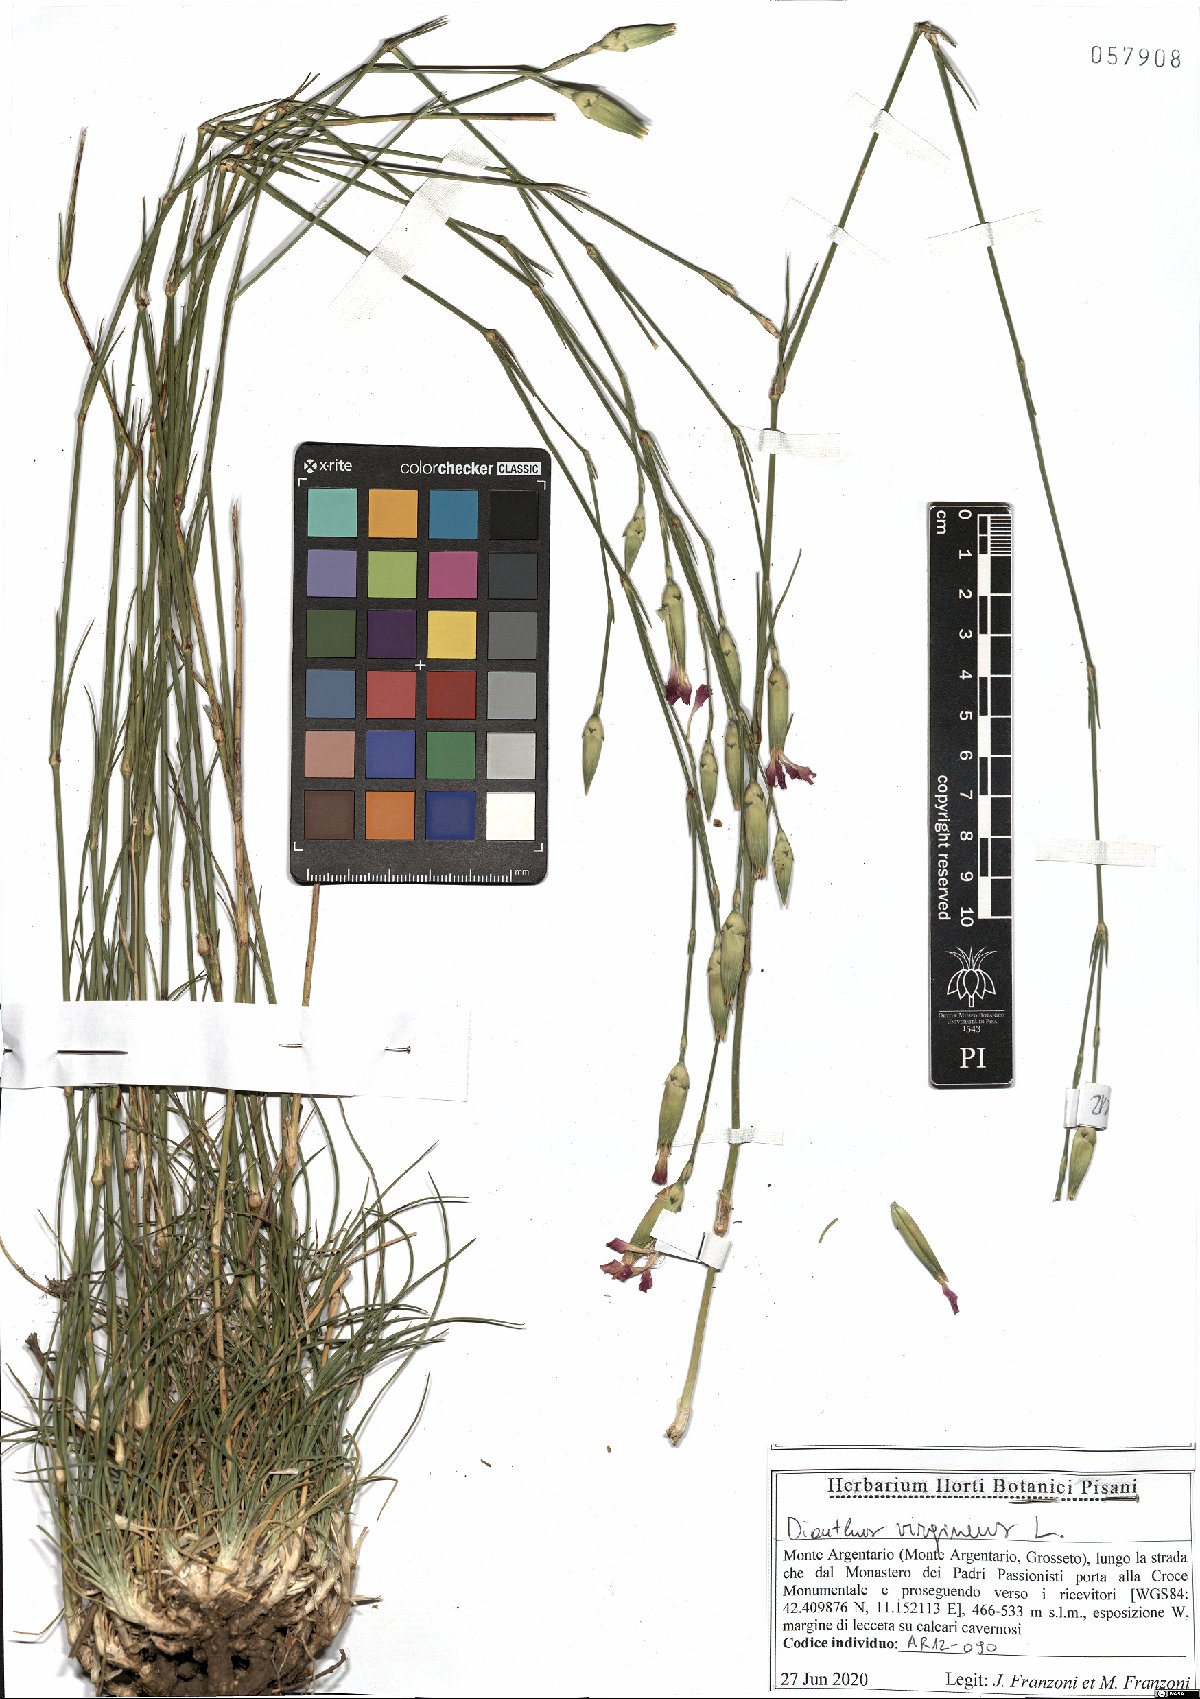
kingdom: Plantae
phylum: Tracheophyta
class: Magnoliopsida
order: Caryophyllales
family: Caryophyllaceae
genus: Dianthus
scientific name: Dianthus virgineus
